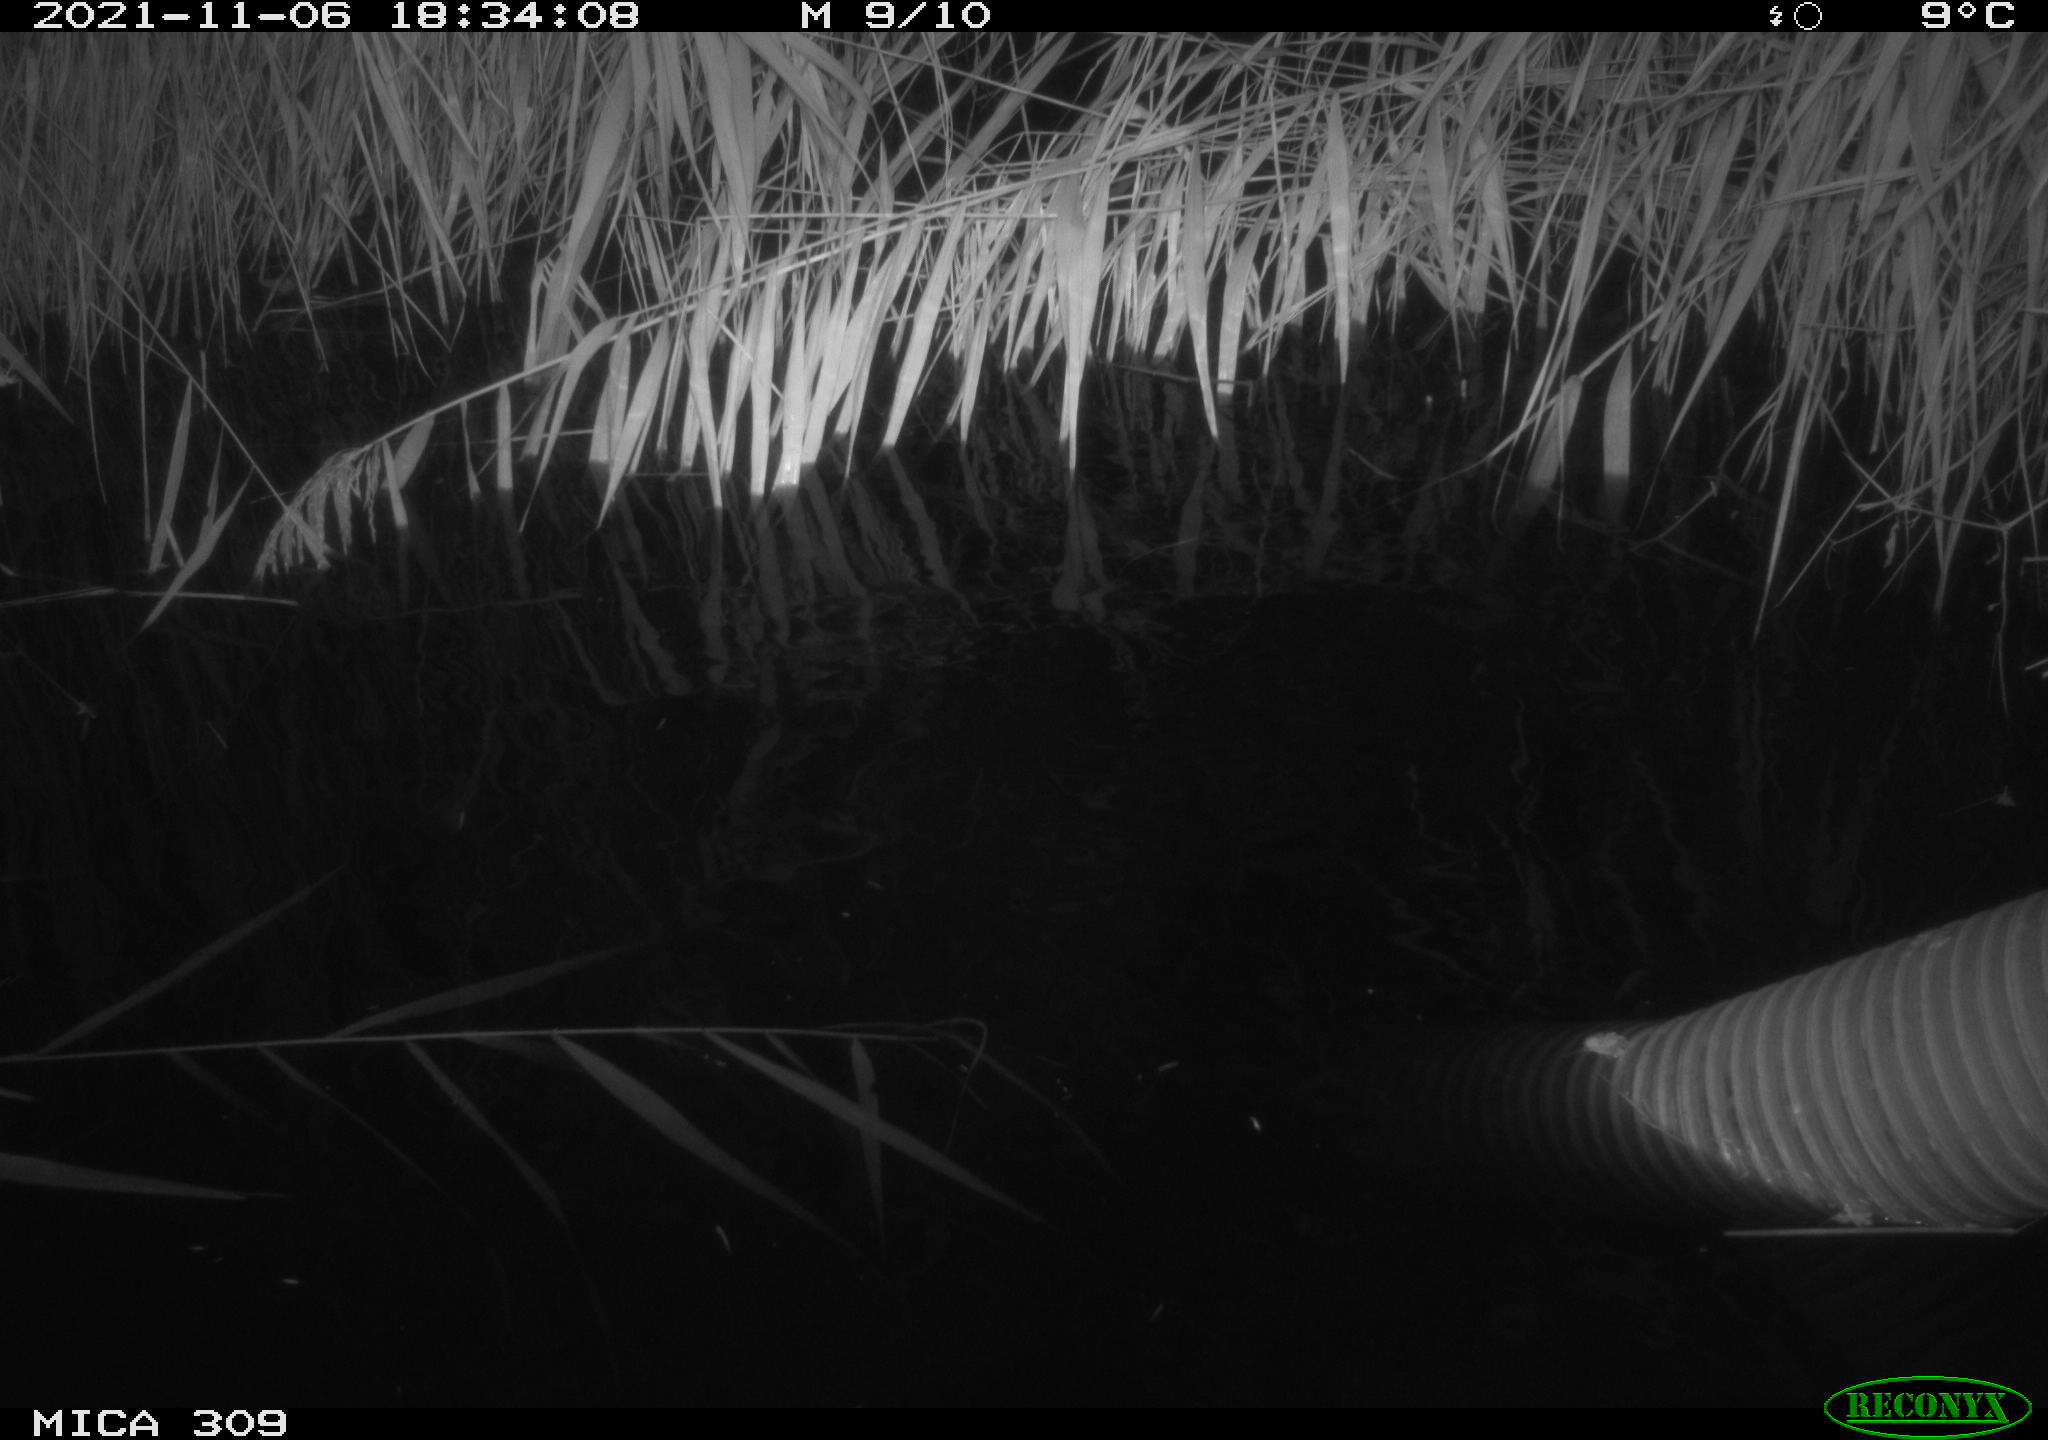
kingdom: Animalia
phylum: Chordata
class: Mammalia
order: Rodentia
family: Muridae
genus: Rattus
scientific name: Rattus norvegicus
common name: Brown rat
